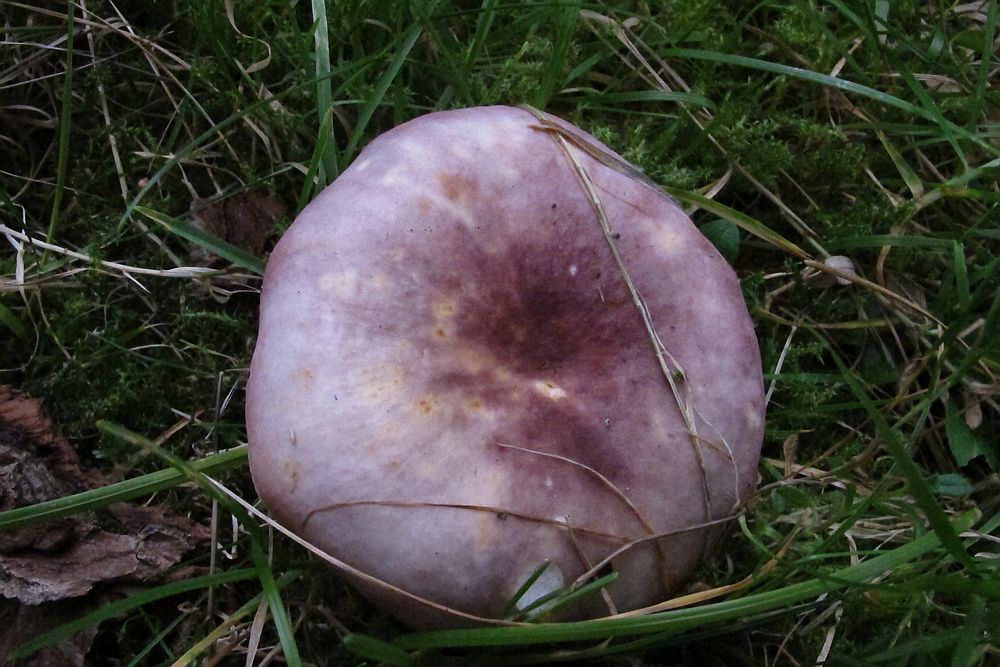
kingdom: Fungi
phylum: Basidiomycota
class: Agaricomycetes
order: Russulales
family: Russulaceae
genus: Russula
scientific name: Russula
